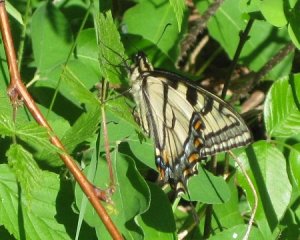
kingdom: Animalia
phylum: Arthropoda
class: Insecta
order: Lepidoptera
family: Papilionidae
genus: Pterourus
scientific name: Pterourus canadensis
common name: Canadian Tiger Swallowtail
